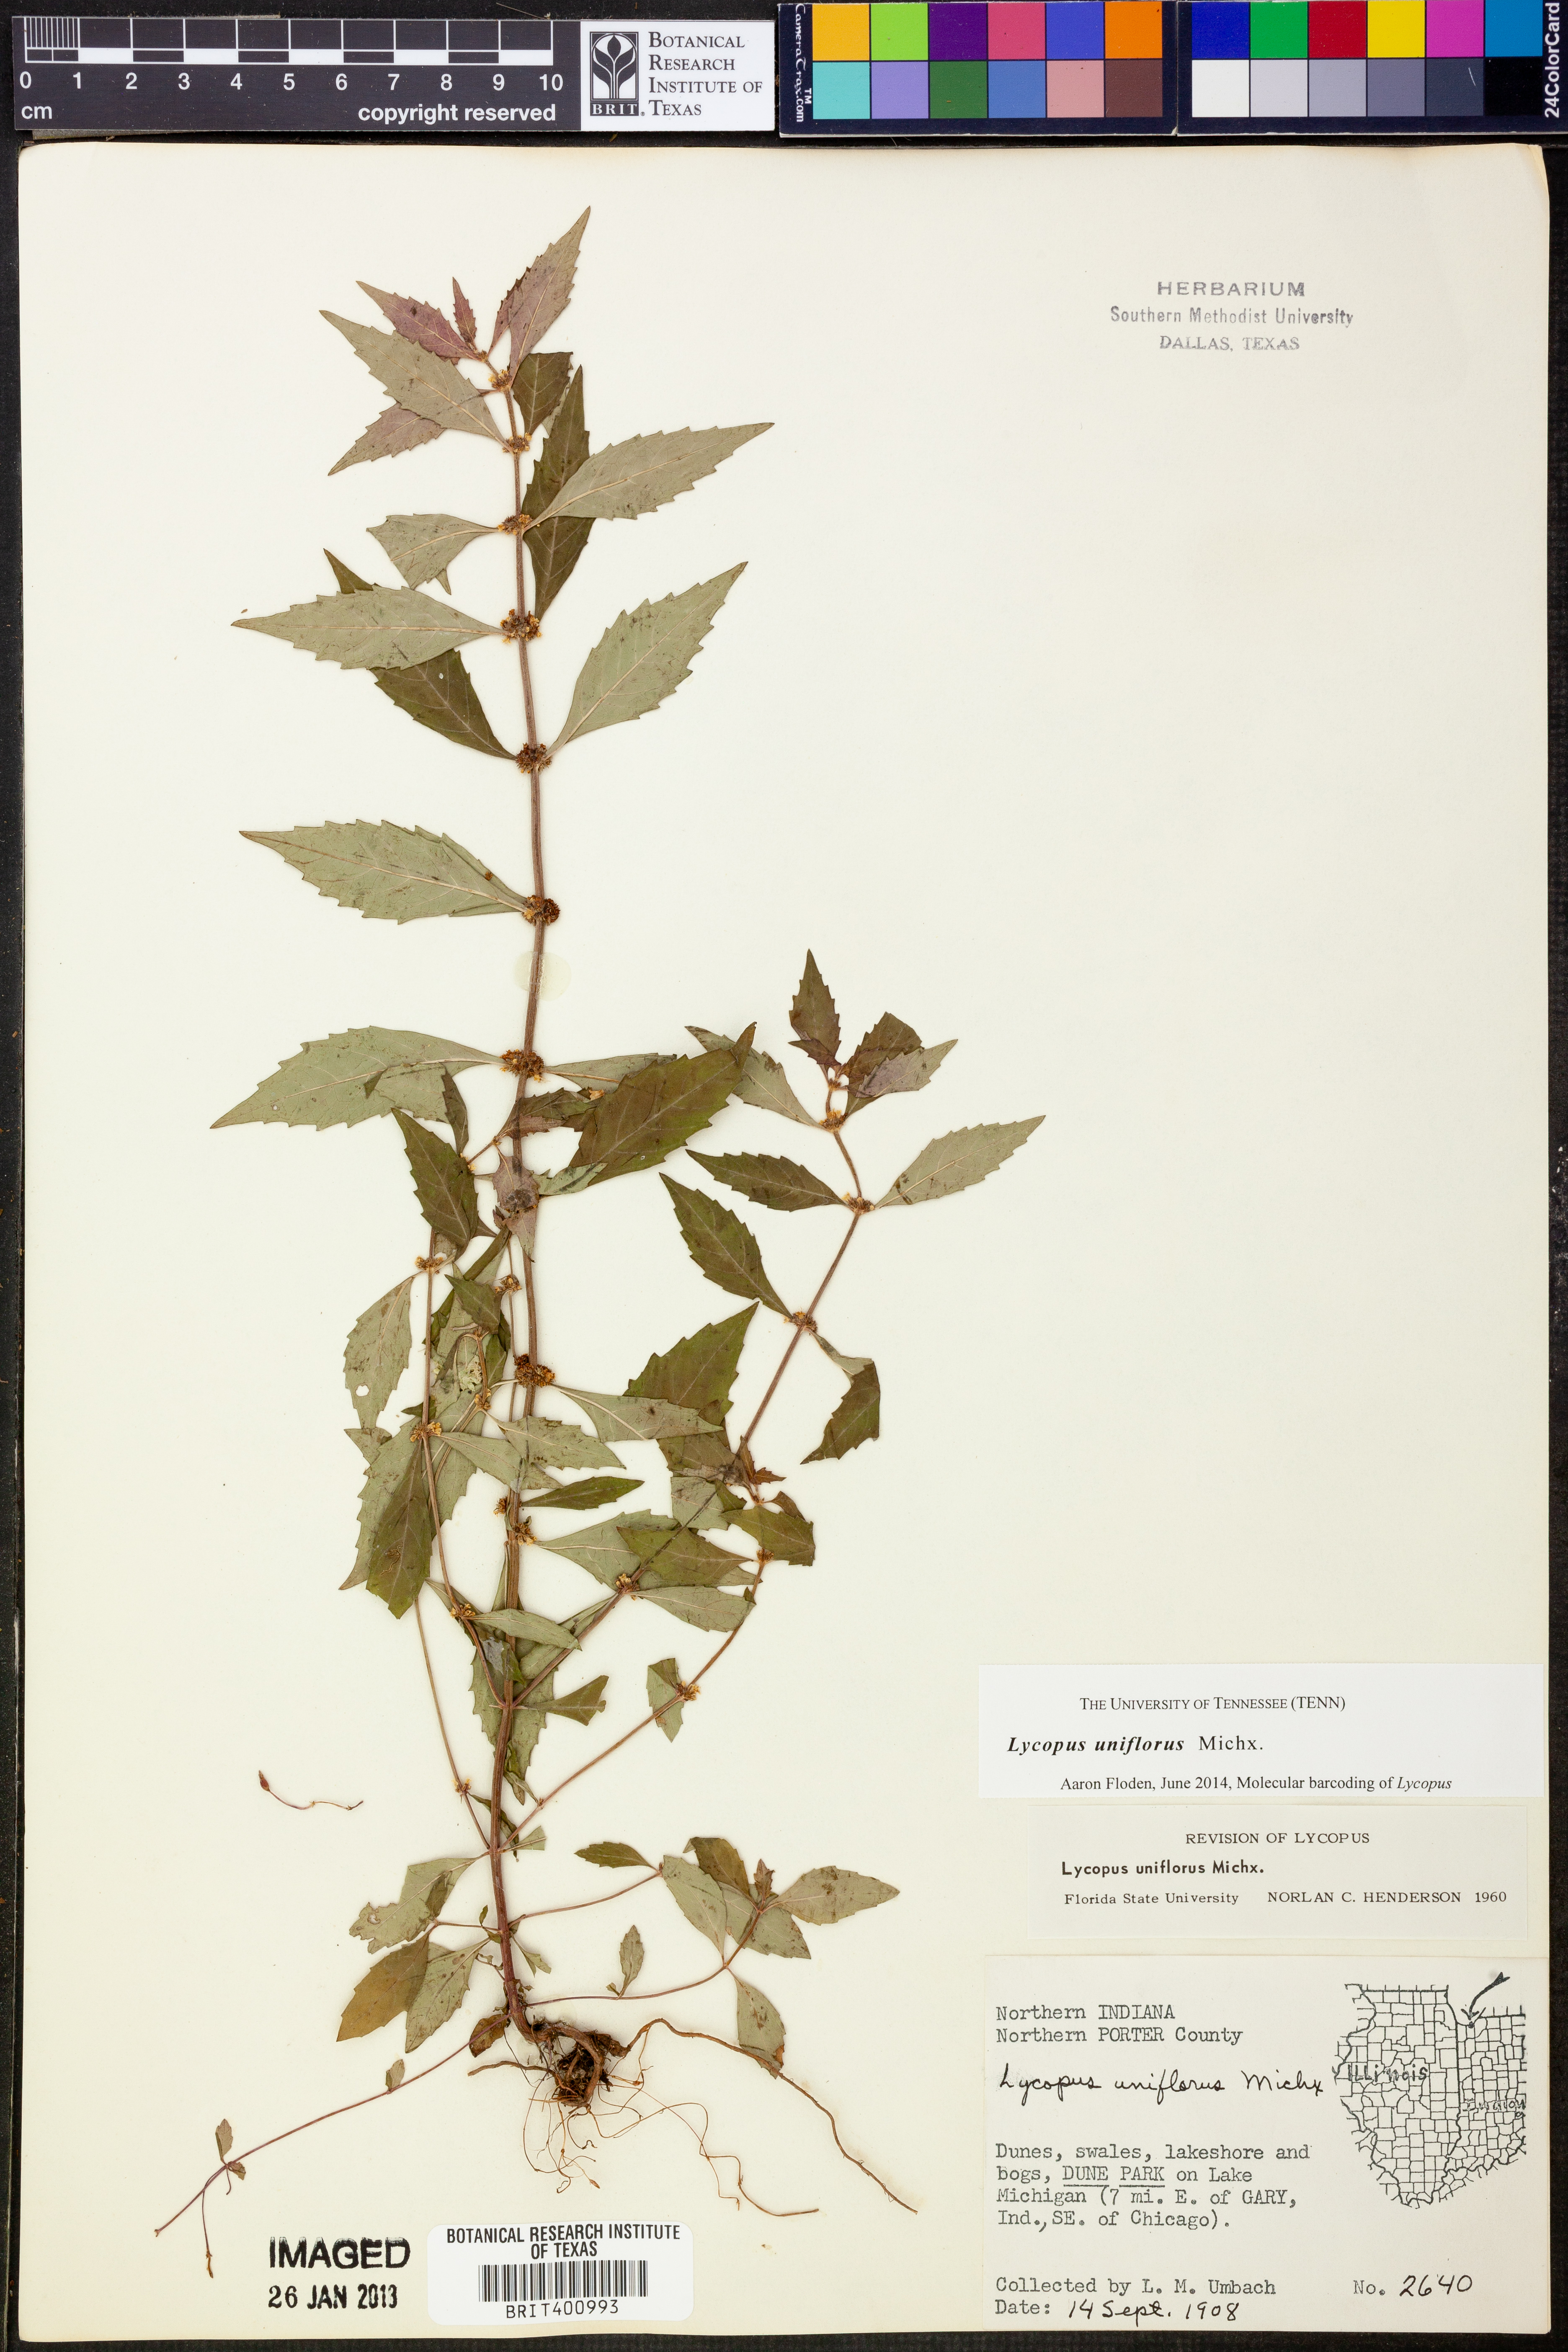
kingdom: Plantae
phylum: Tracheophyta
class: Magnoliopsida
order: Lamiales
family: Lamiaceae
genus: Lycopus
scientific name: Lycopus uniflorus
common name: Northern bugleweed
